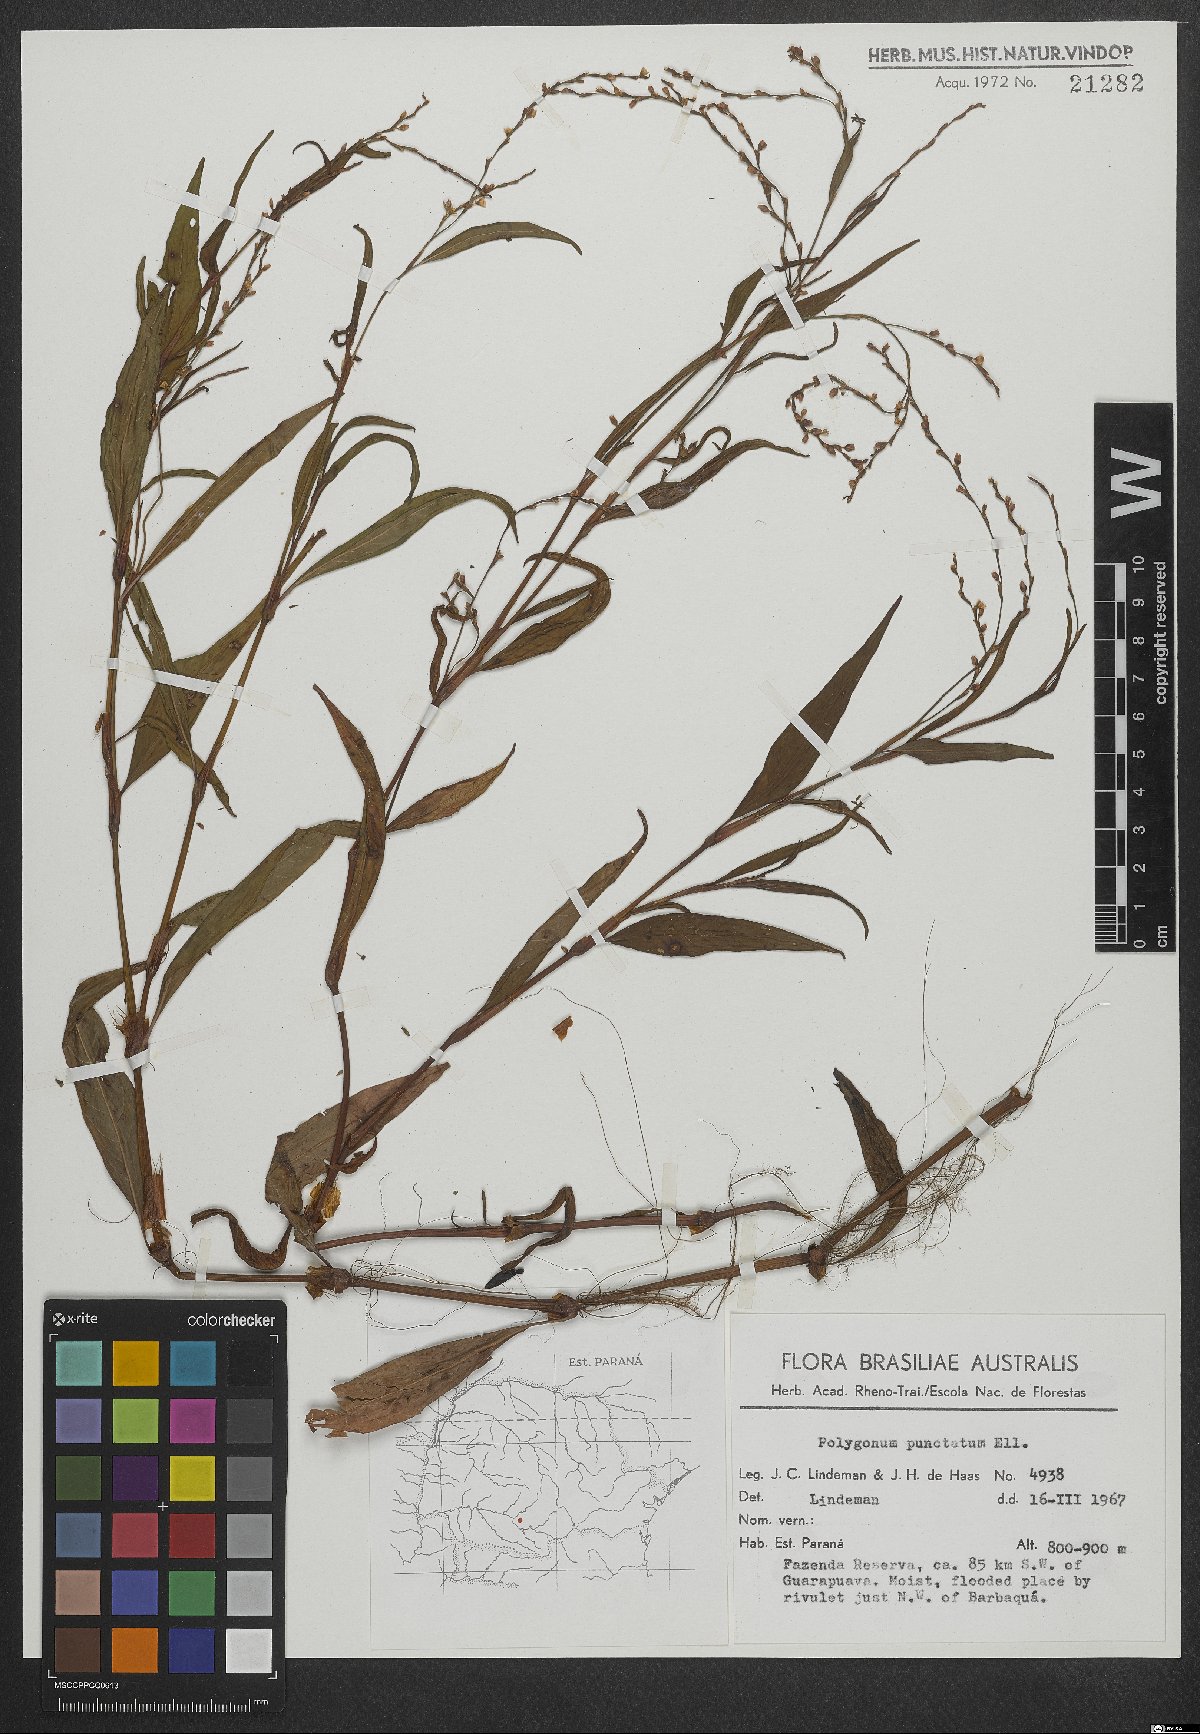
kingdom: Plantae
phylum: Tracheophyta
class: Magnoliopsida
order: Caryophyllales
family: Polygonaceae
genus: Persicaria
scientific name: Persicaria punctata
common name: Dotted smartweed
